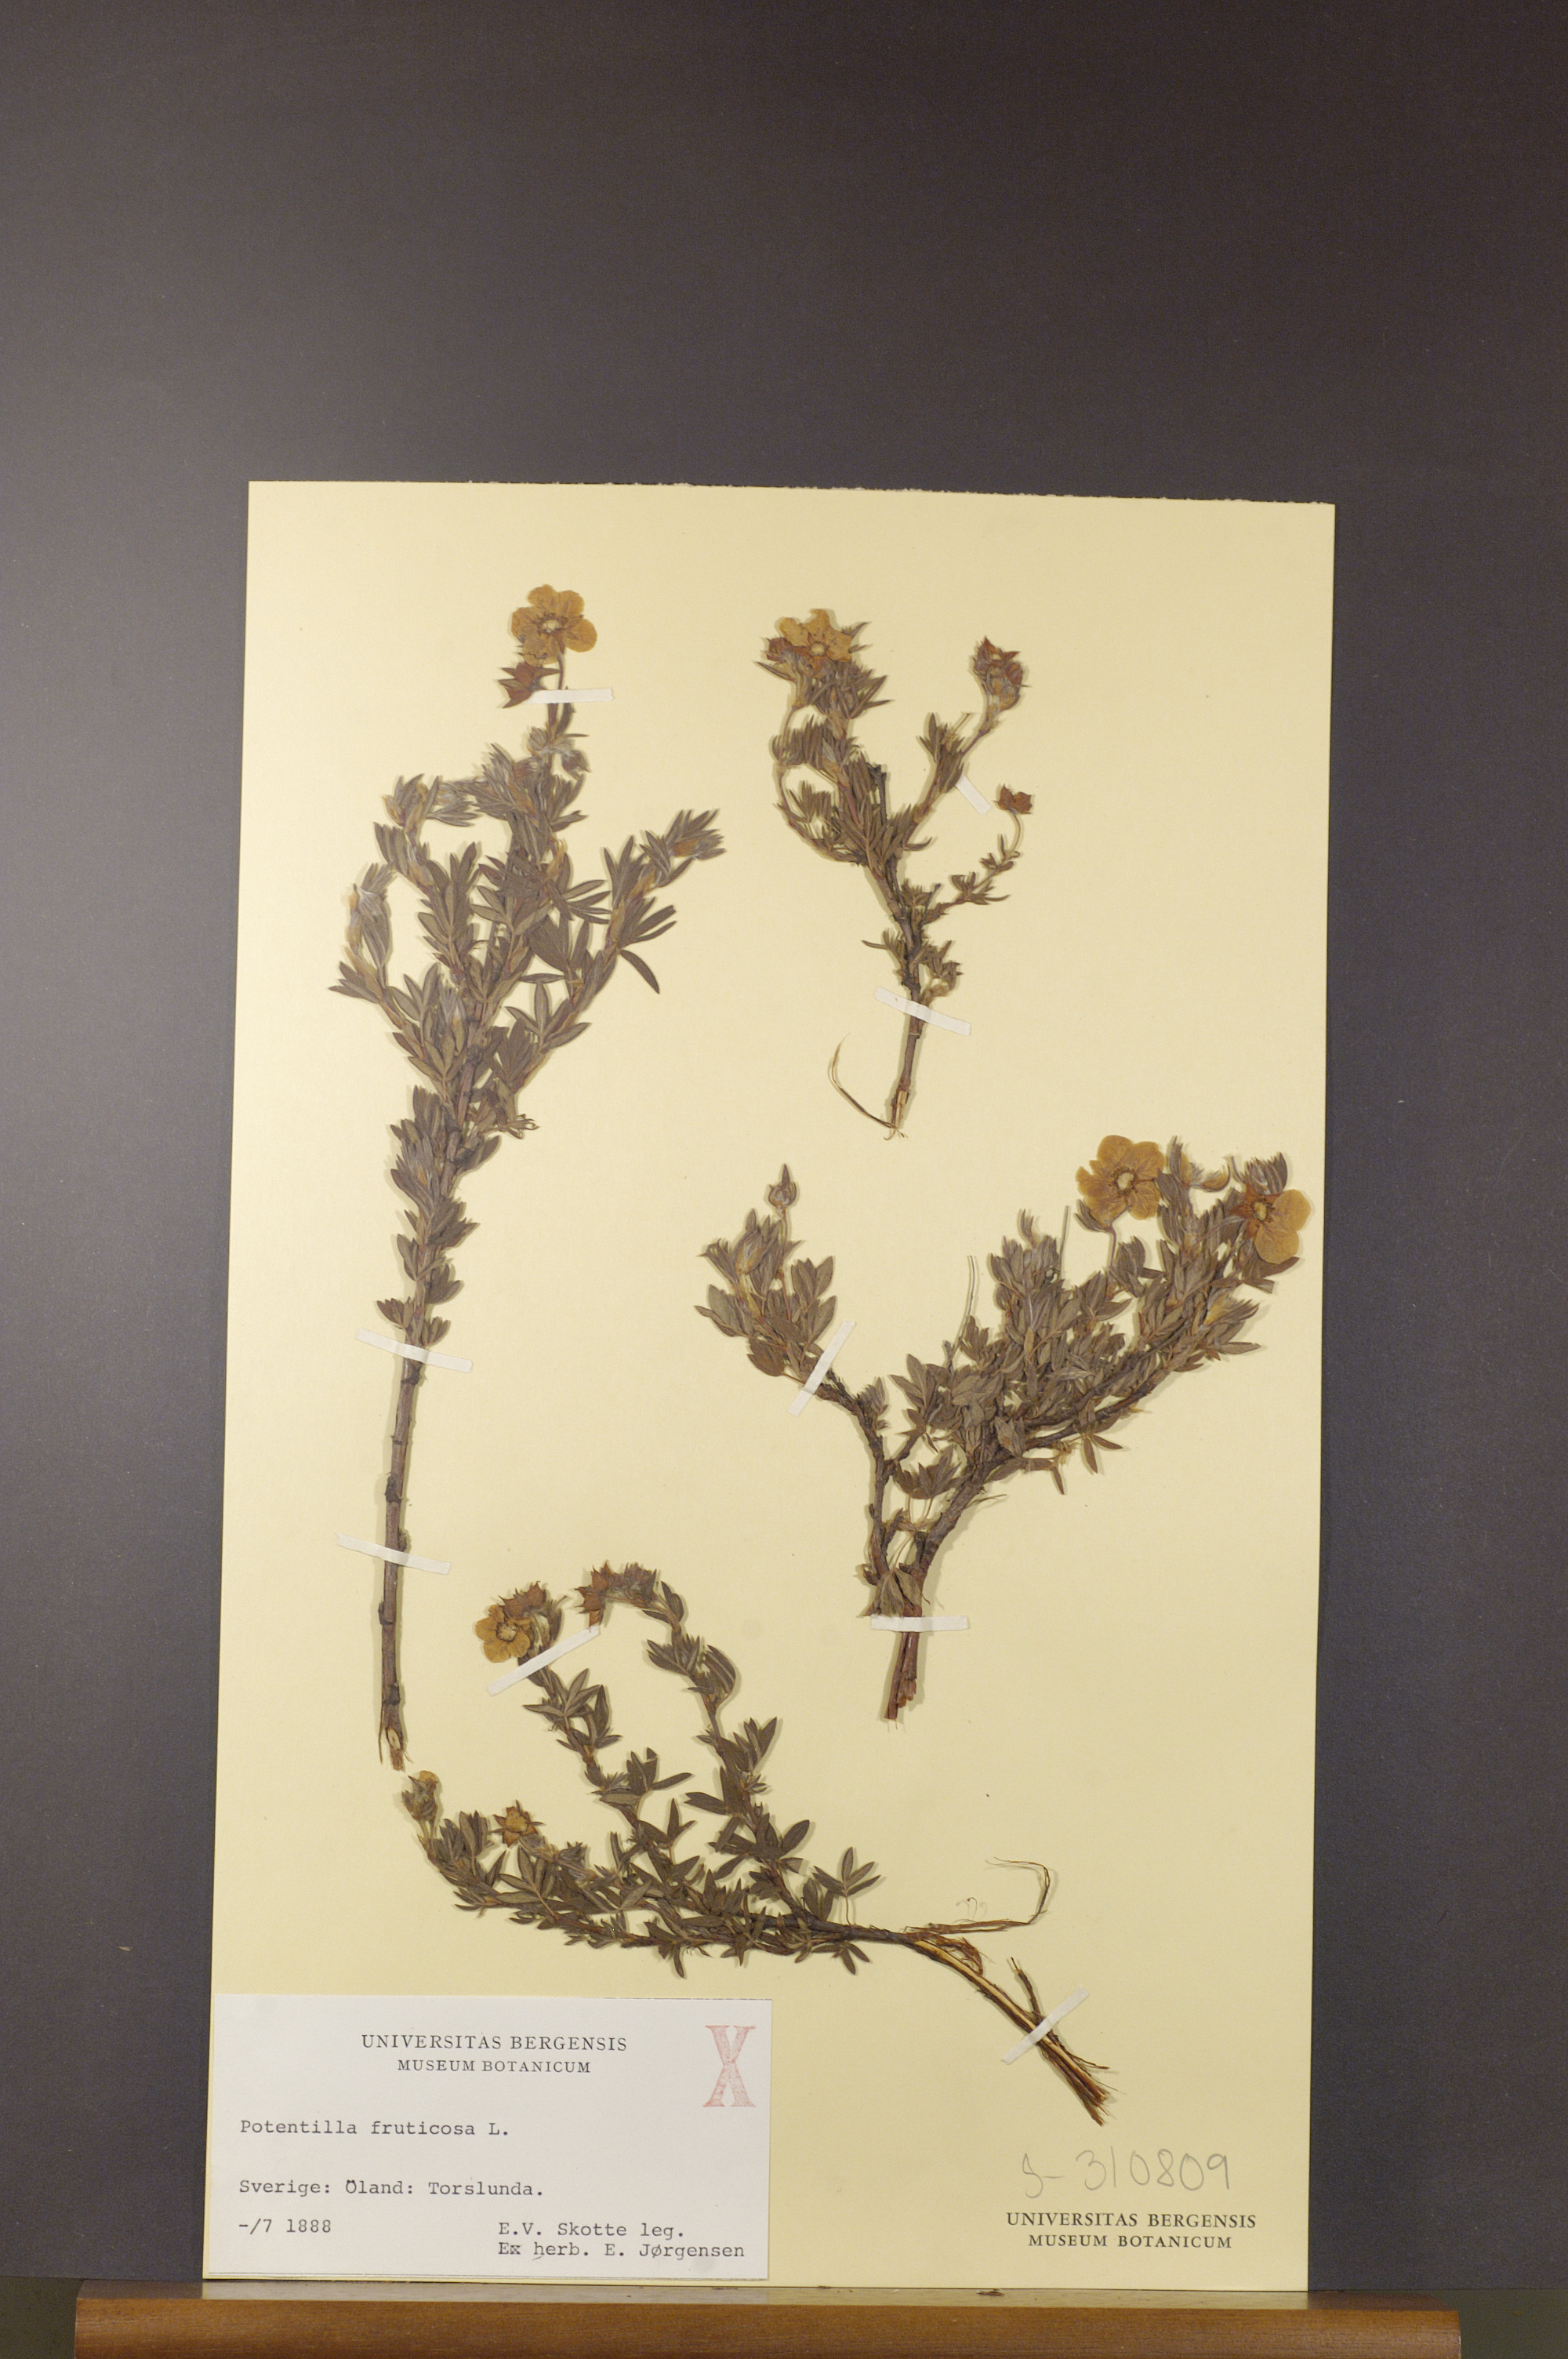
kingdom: Plantae
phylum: Tracheophyta
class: Magnoliopsida
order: Rosales
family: Rosaceae
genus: Dasiphora
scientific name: Dasiphora fruticosa
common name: Shrubby cinquefoil
